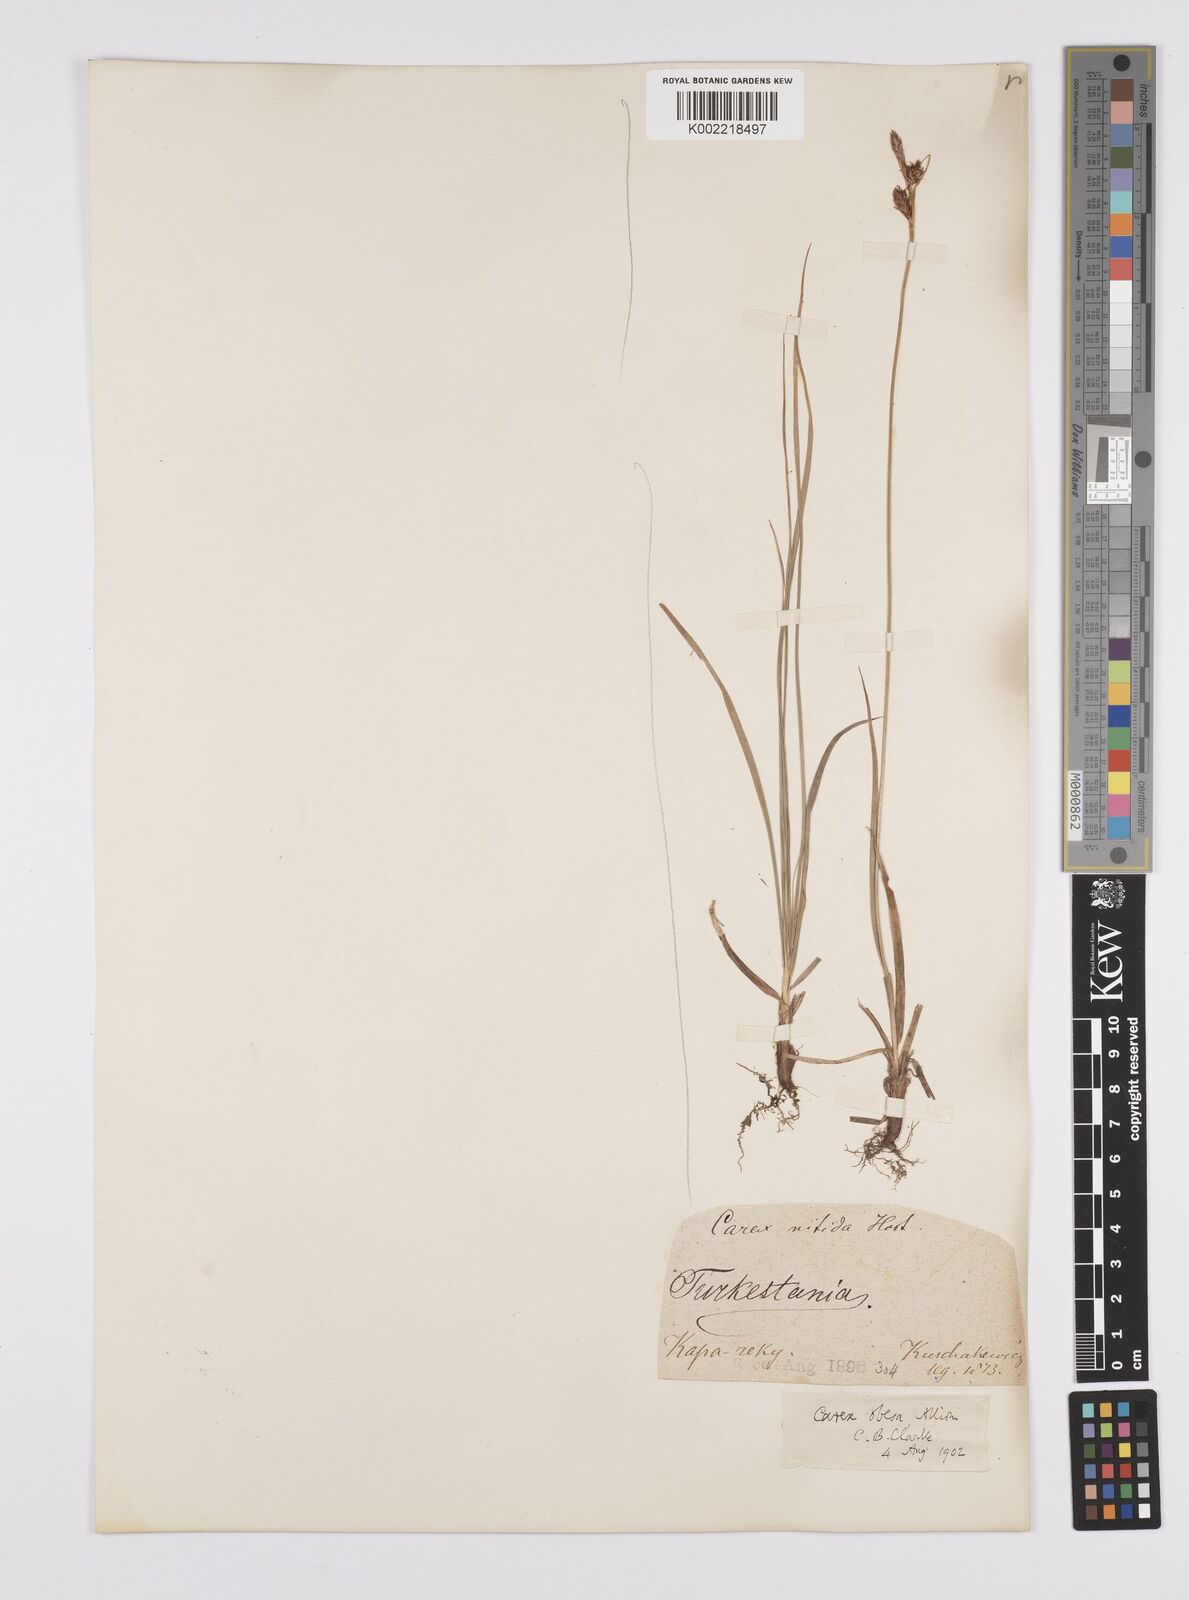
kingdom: Plantae
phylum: Tracheophyta
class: Liliopsida
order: Poales
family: Cyperaceae
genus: Carex
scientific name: Carex liparocarpos
